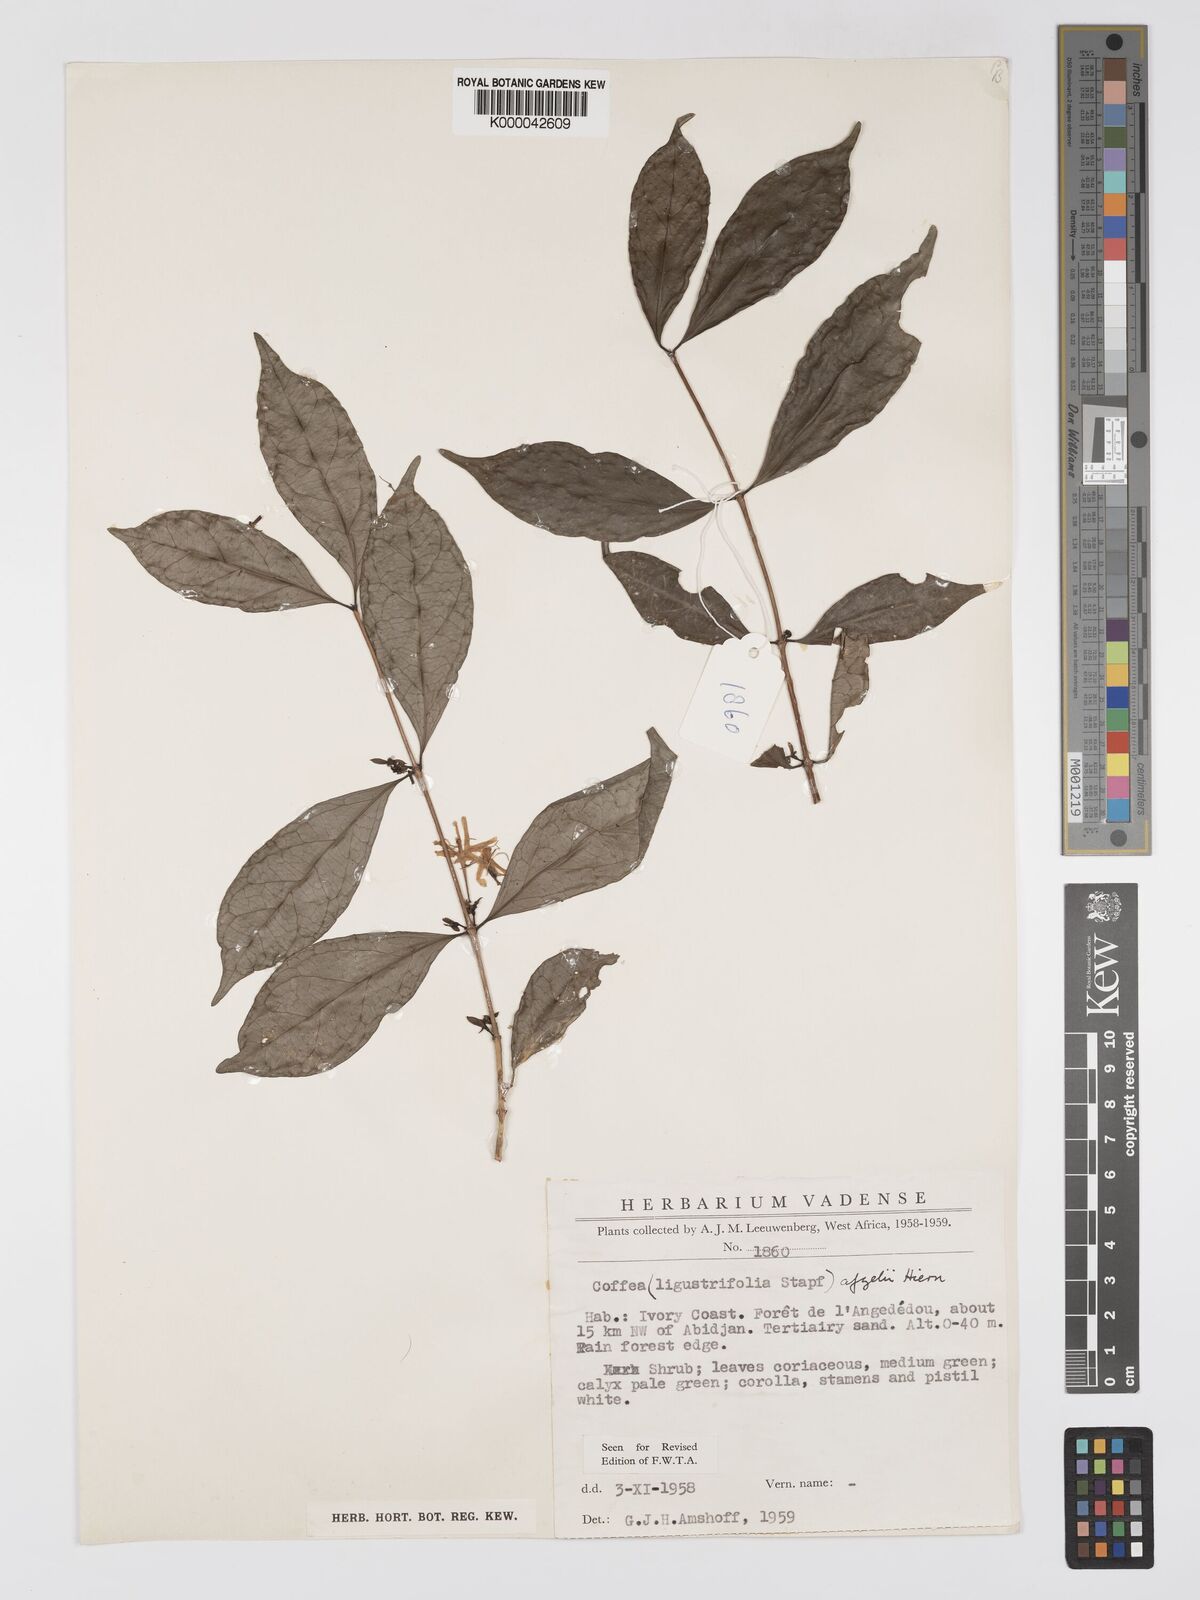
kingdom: Plantae
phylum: Tracheophyta
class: Magnoliopsida
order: Gentianales
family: Rubiaceae
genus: Argocoffeopsis
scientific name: Argocoffeopsis afzelii
